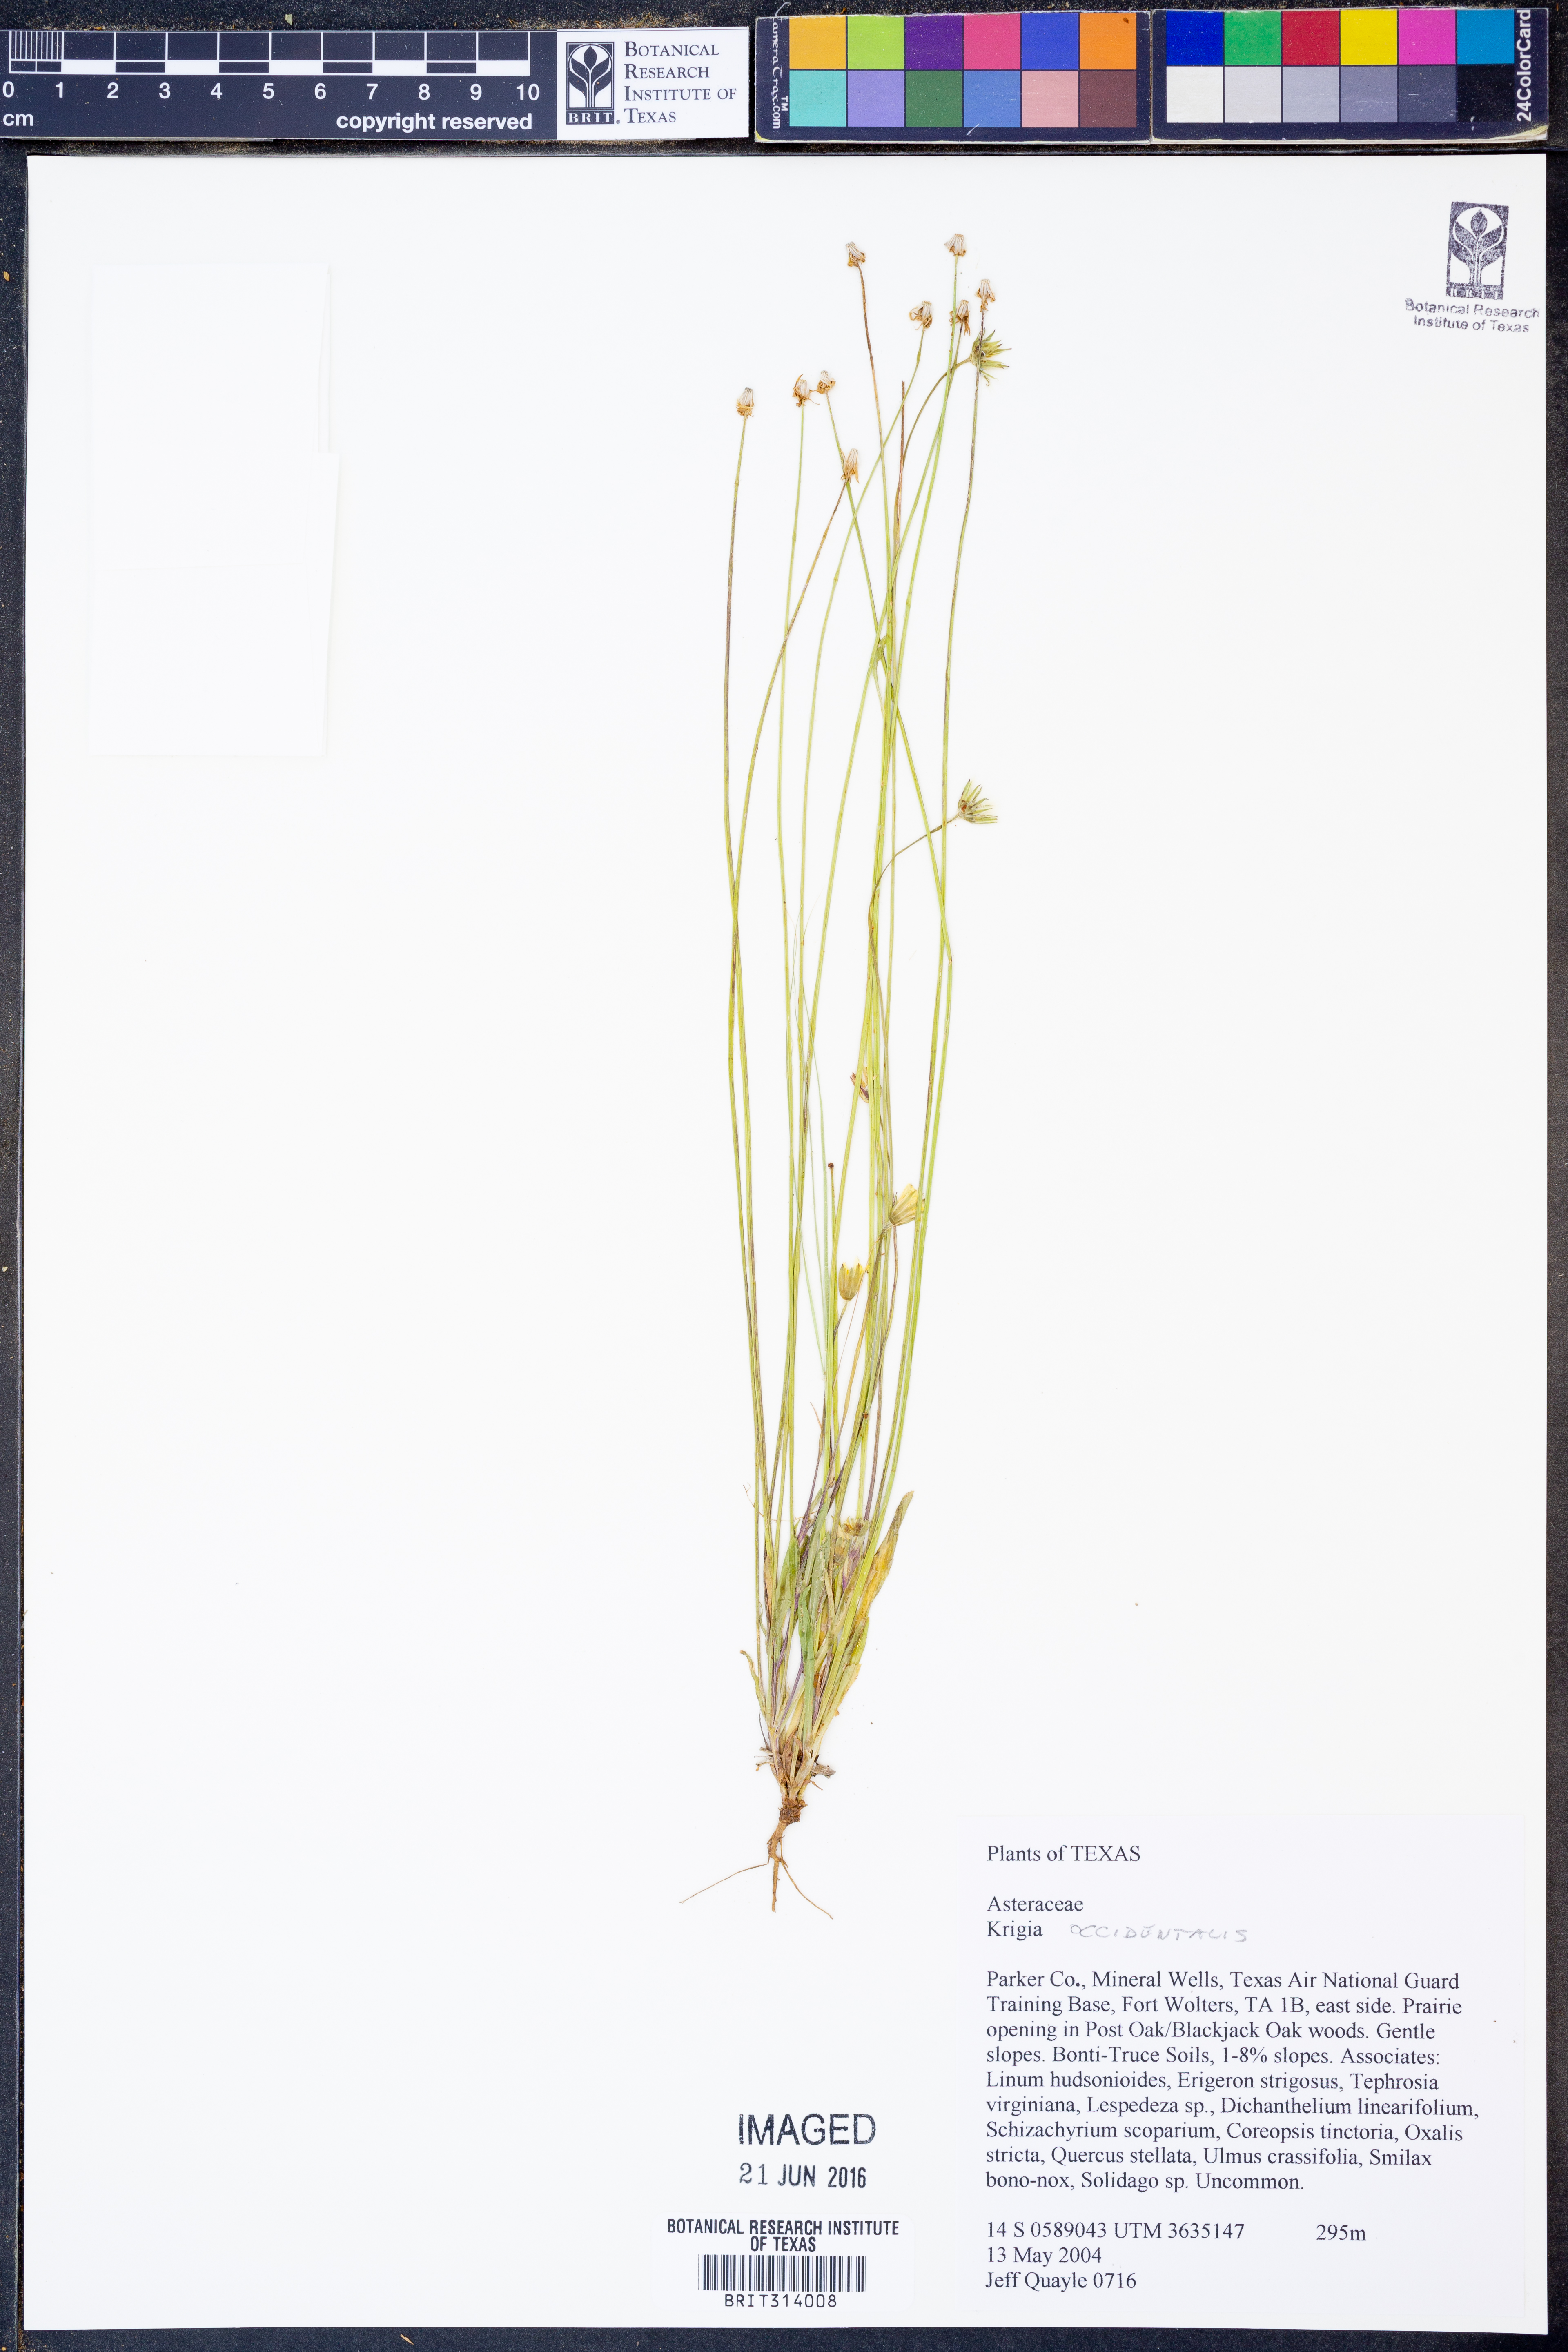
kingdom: Plantae
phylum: Tracheophyta
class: Magnoliopsida
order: Asterales
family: Asteraceae
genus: Krigia
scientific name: Krigia occidentalis
